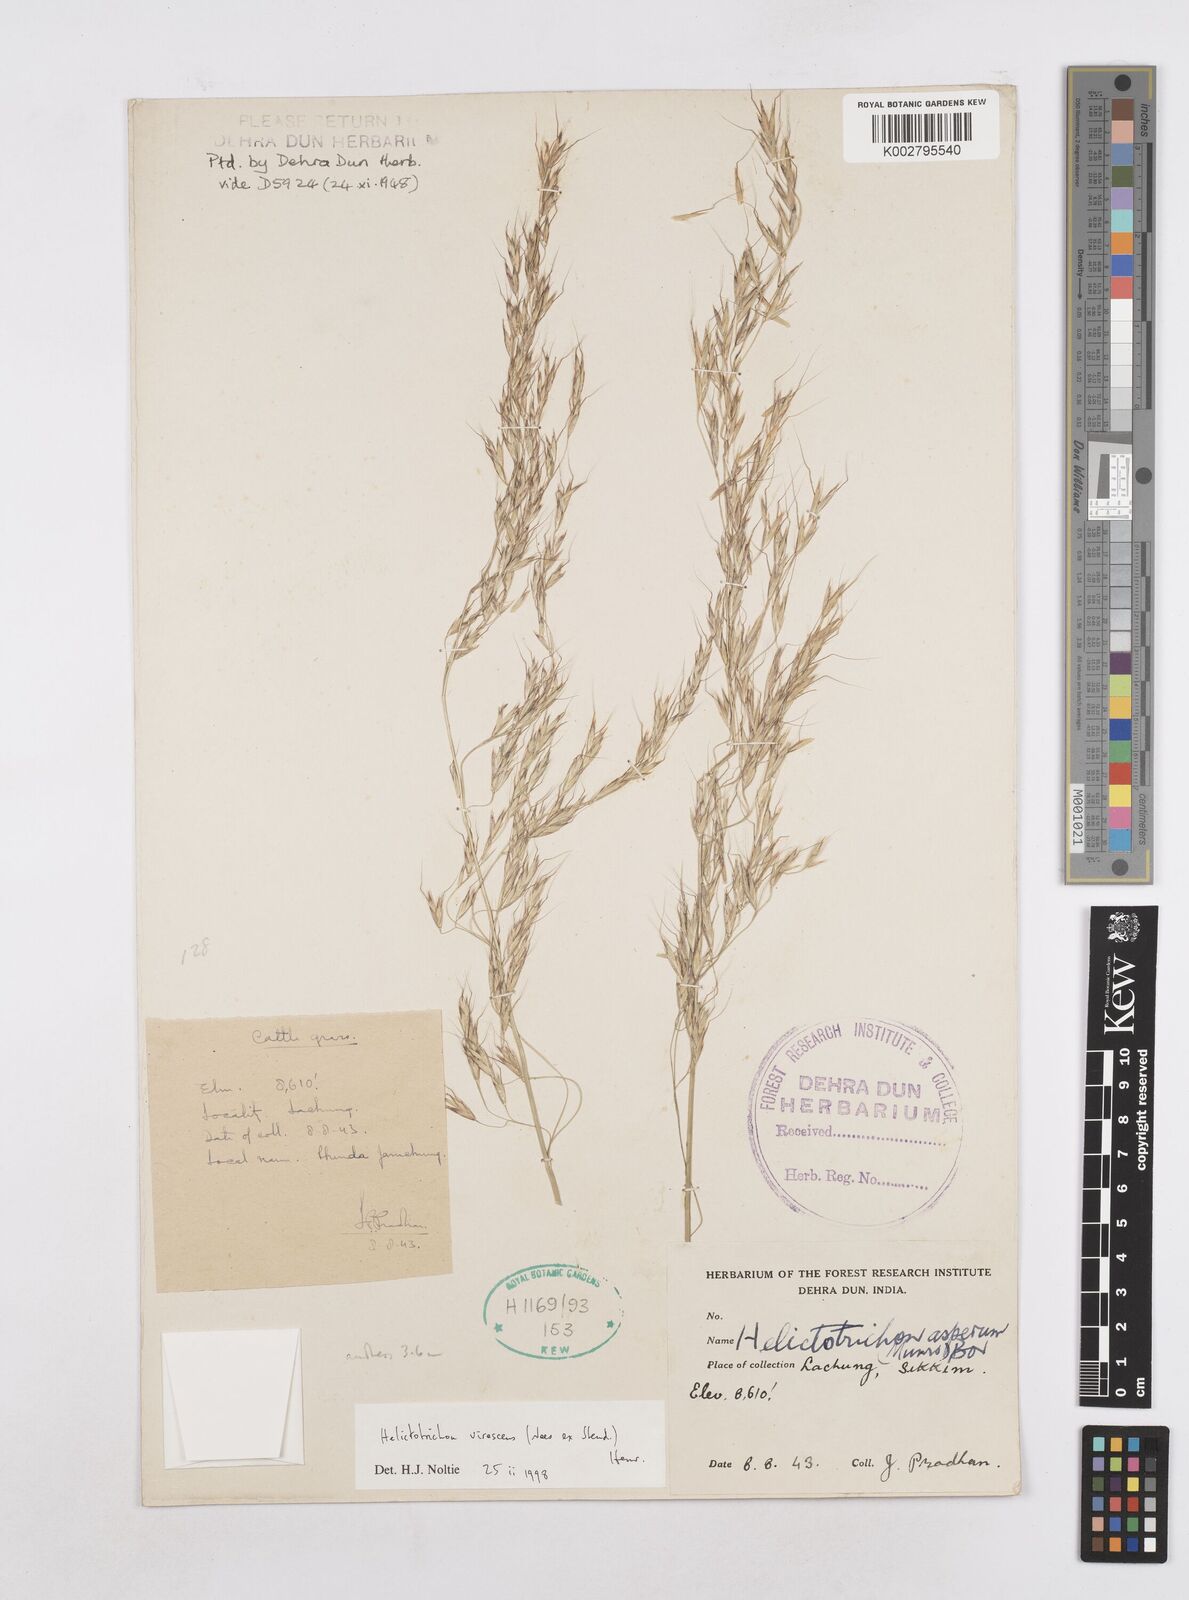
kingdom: Plantae
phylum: Tracheophyta
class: Liliopsida
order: Poales
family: Poaceae
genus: Trisetopsis
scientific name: Trisetopsis junghuhnii
